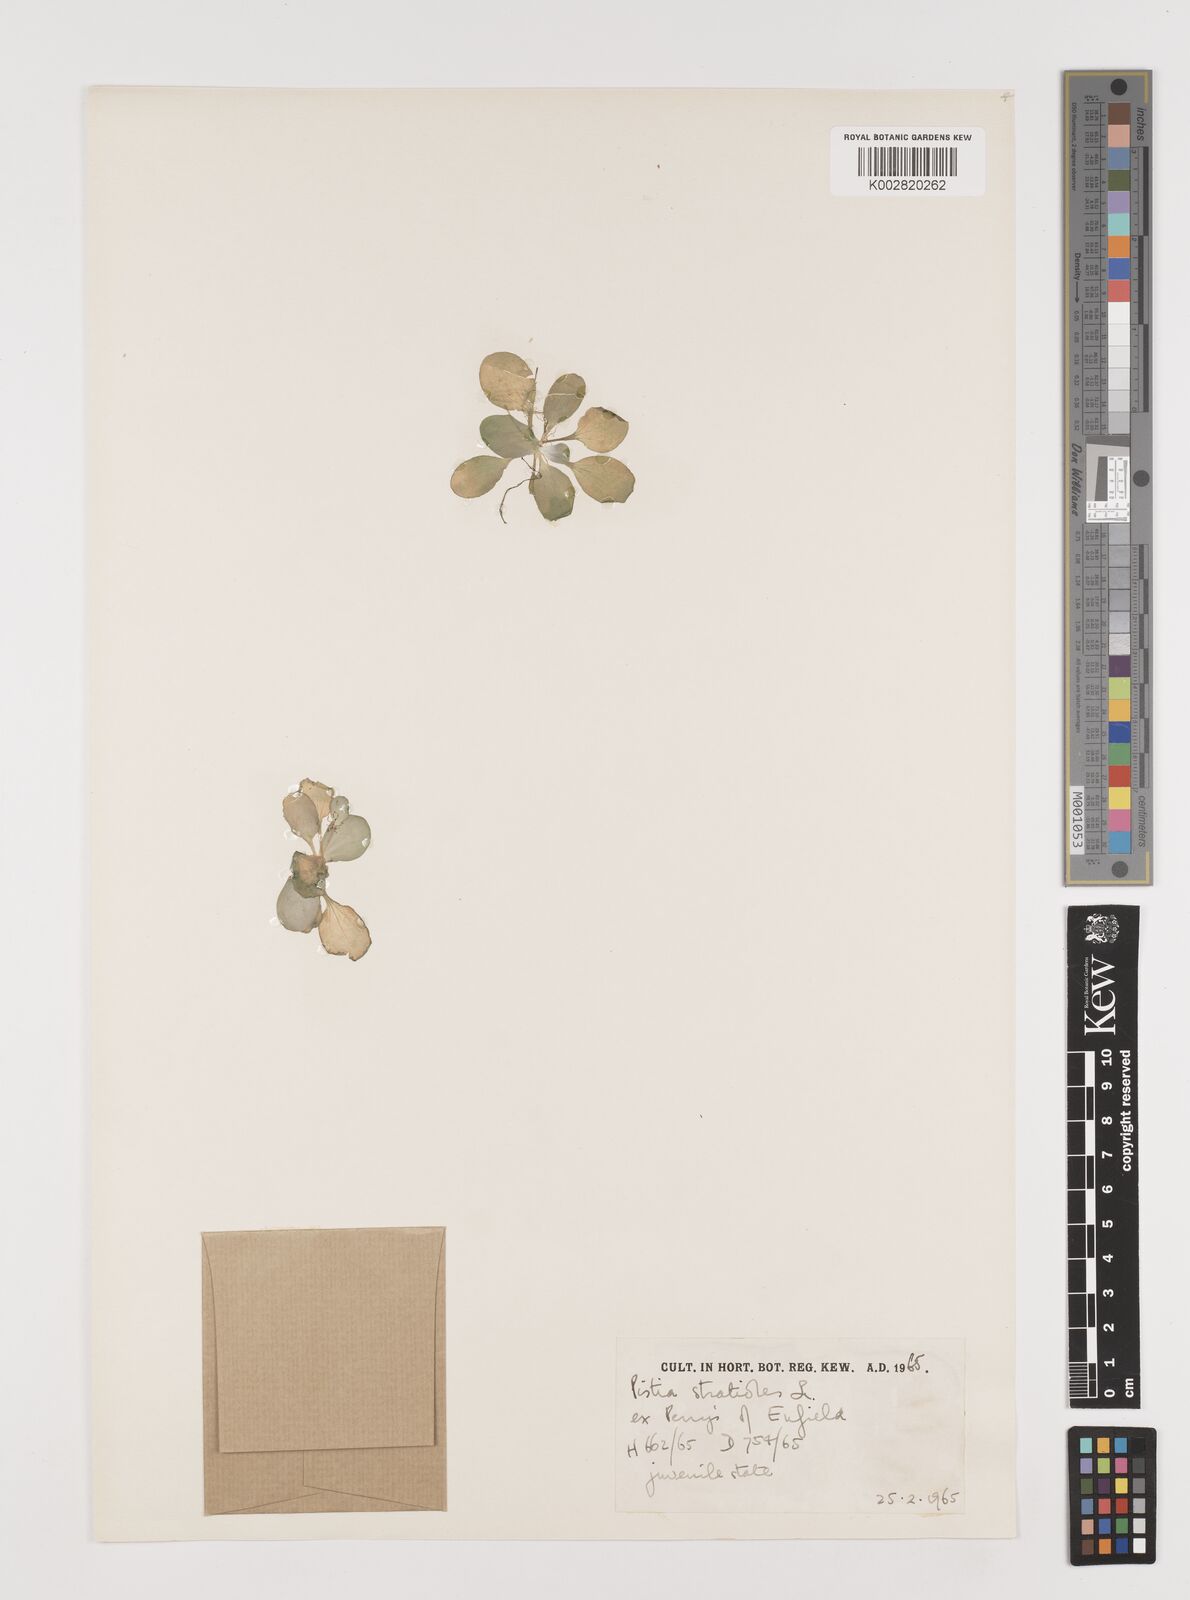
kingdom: Plantae
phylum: Tracheophyta
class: Liliopsida
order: Alismatales
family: Araceae
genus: Pistia
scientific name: Pistia stratiotes
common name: Water lettuce
